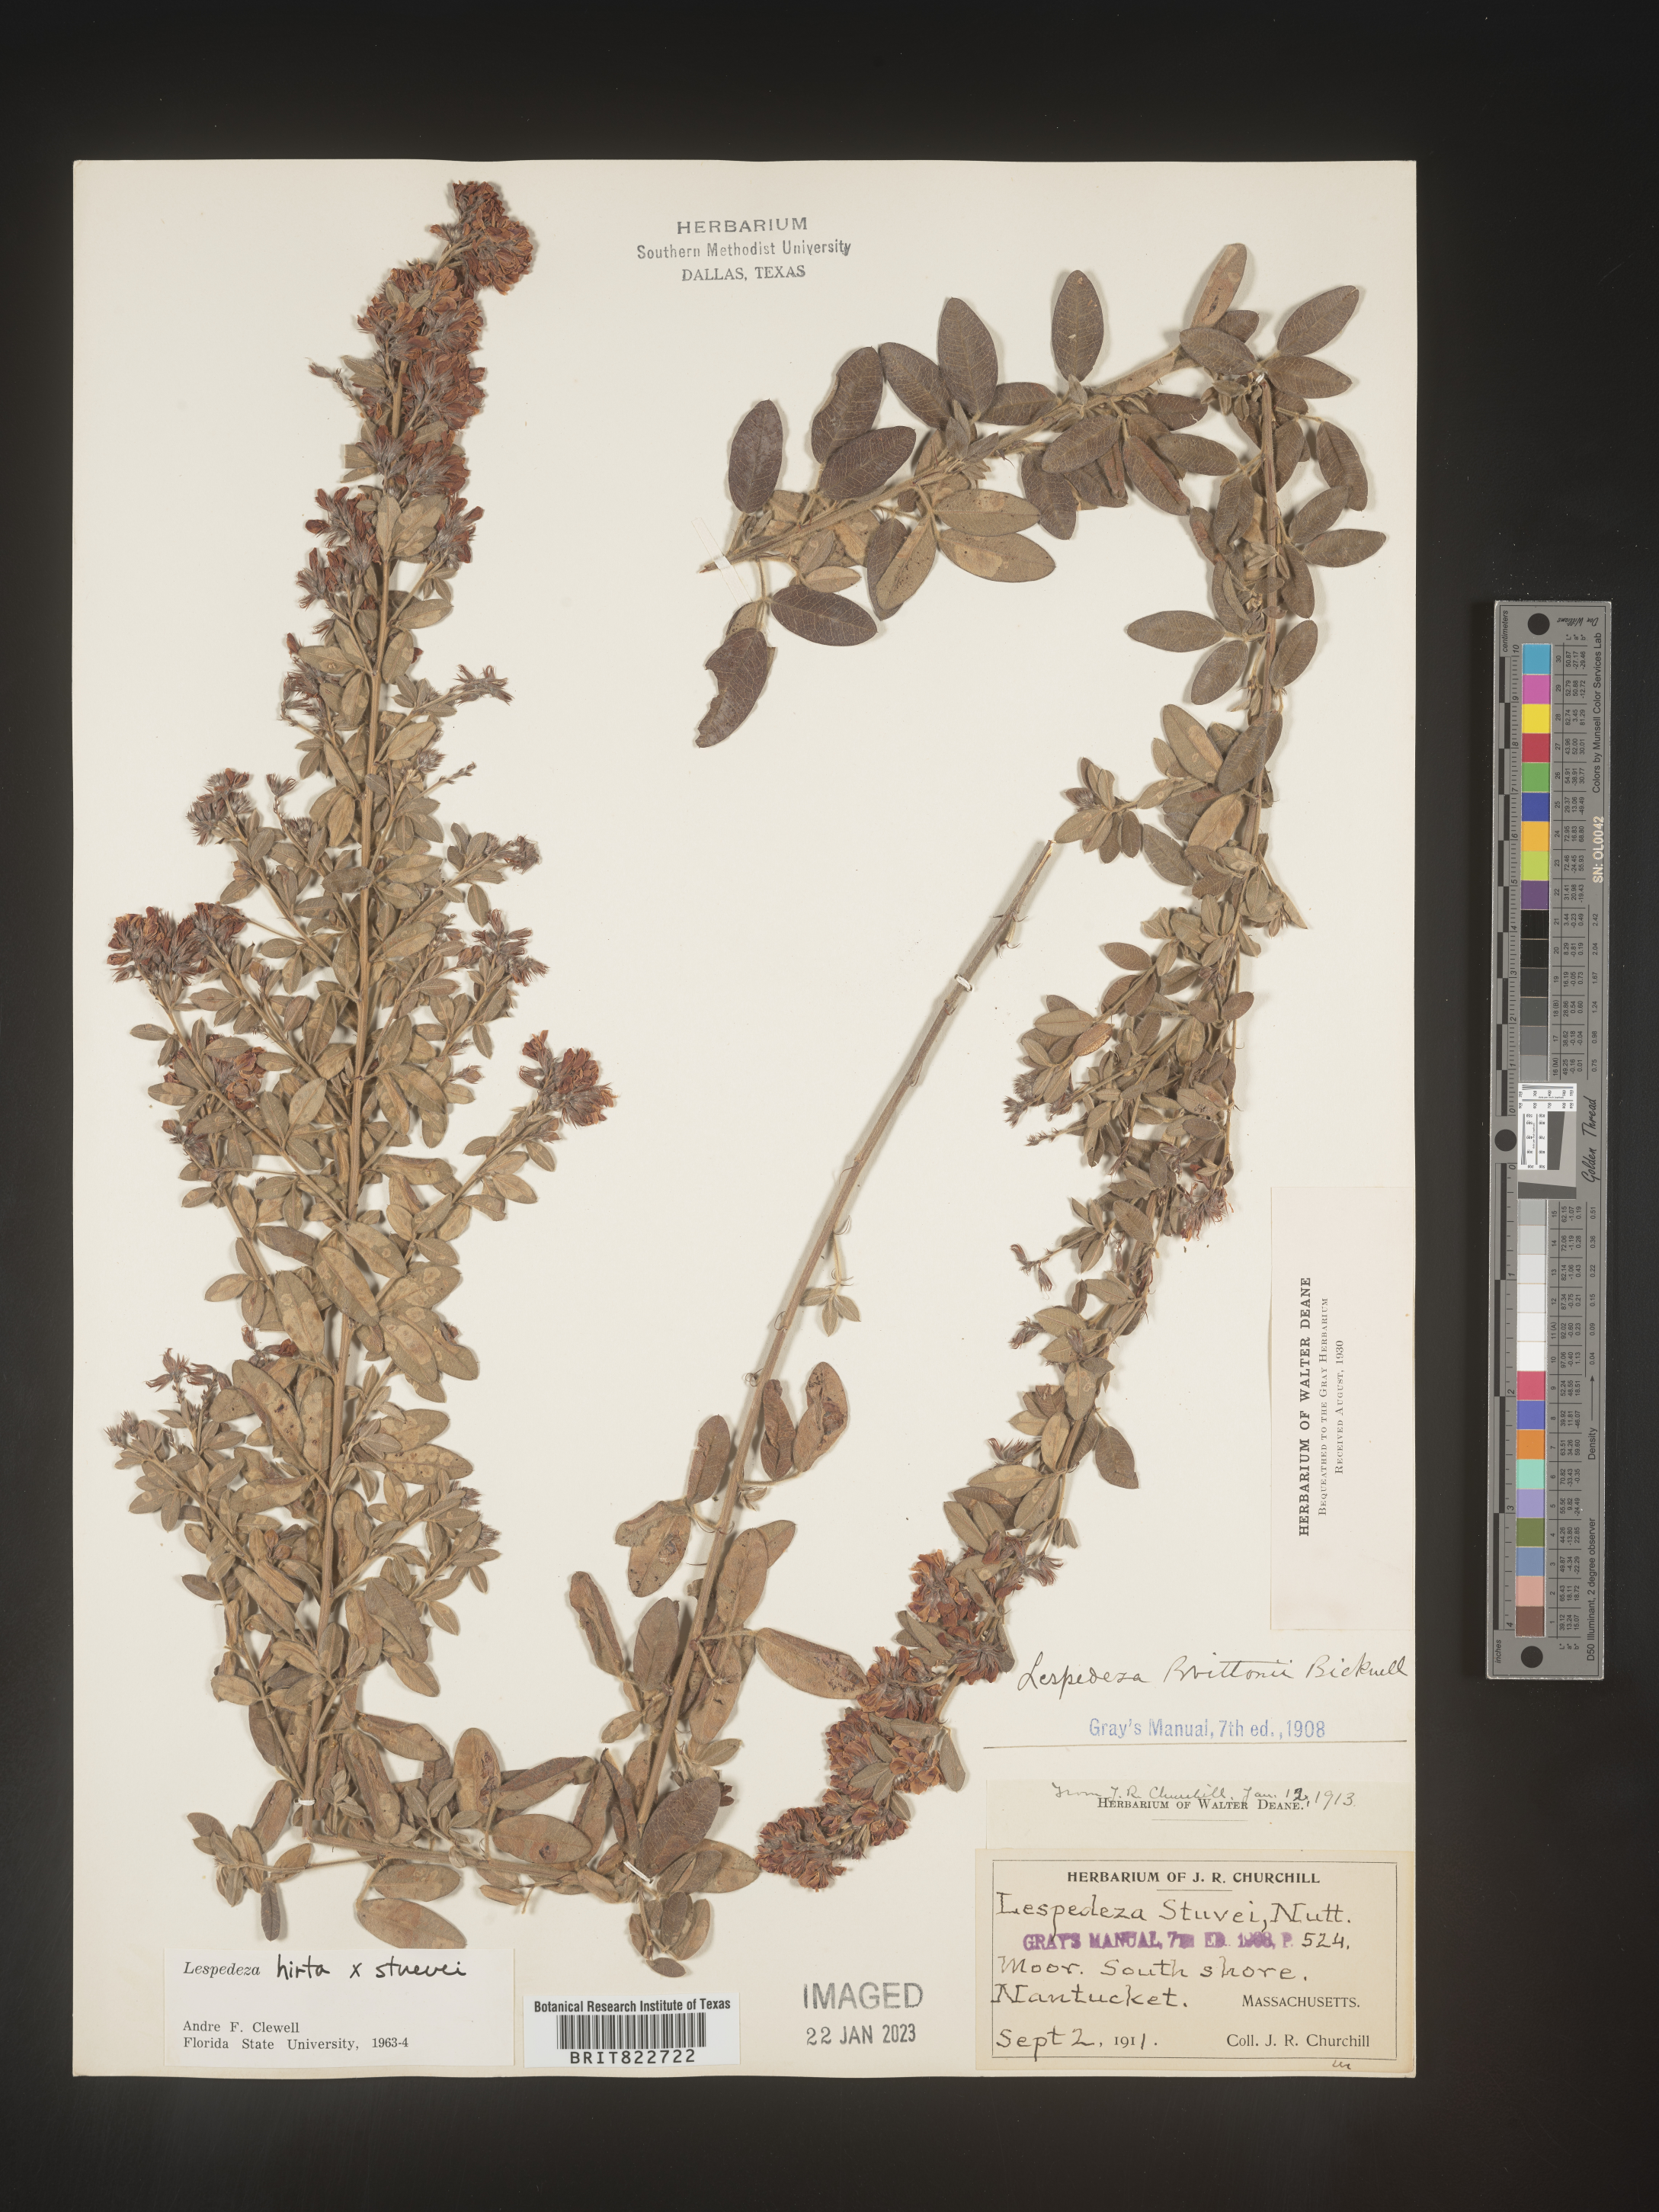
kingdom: Plantae
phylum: Tracheophyta
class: Magnoliopsida
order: Fabales
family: Fabaceae
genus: Lespedeza
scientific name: Lespedeza hirta
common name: Hairy lespedeza
